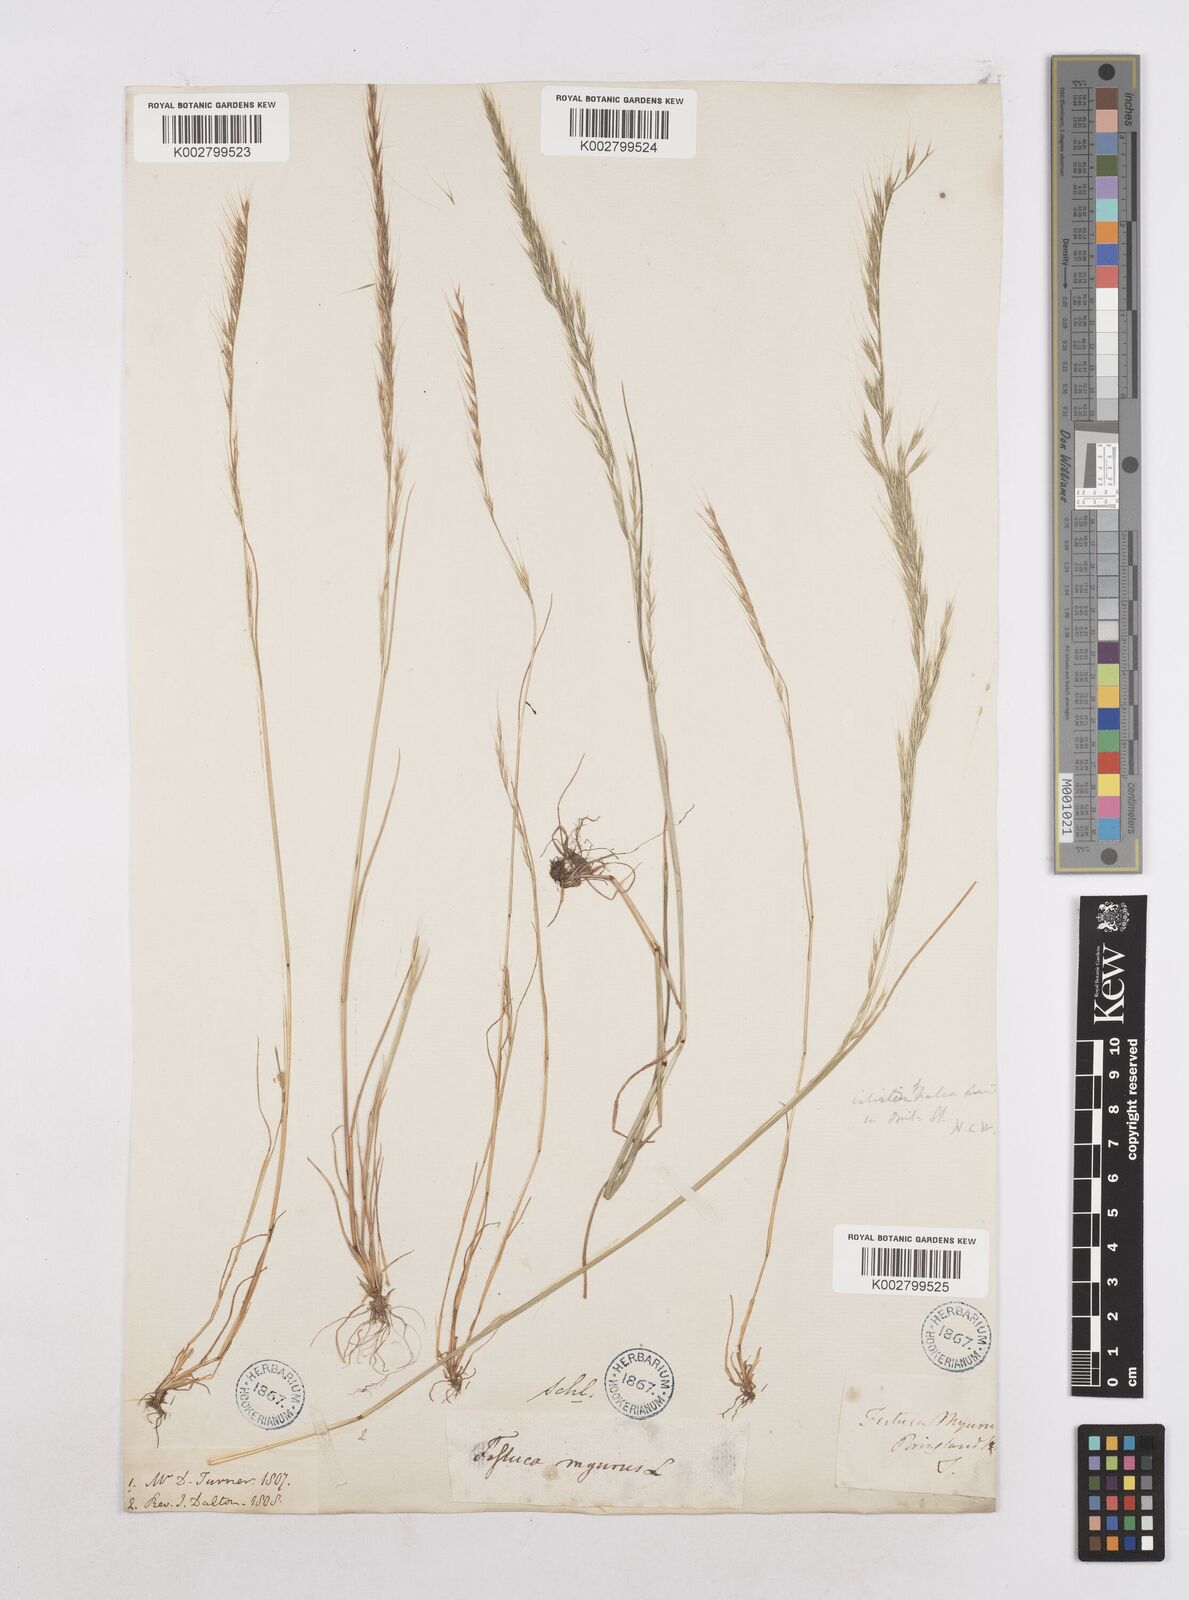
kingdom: Plantae
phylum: Tracheophyta
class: Liliopsida
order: Poales
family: Poaceae
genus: Festuca
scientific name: Festuca myuros
